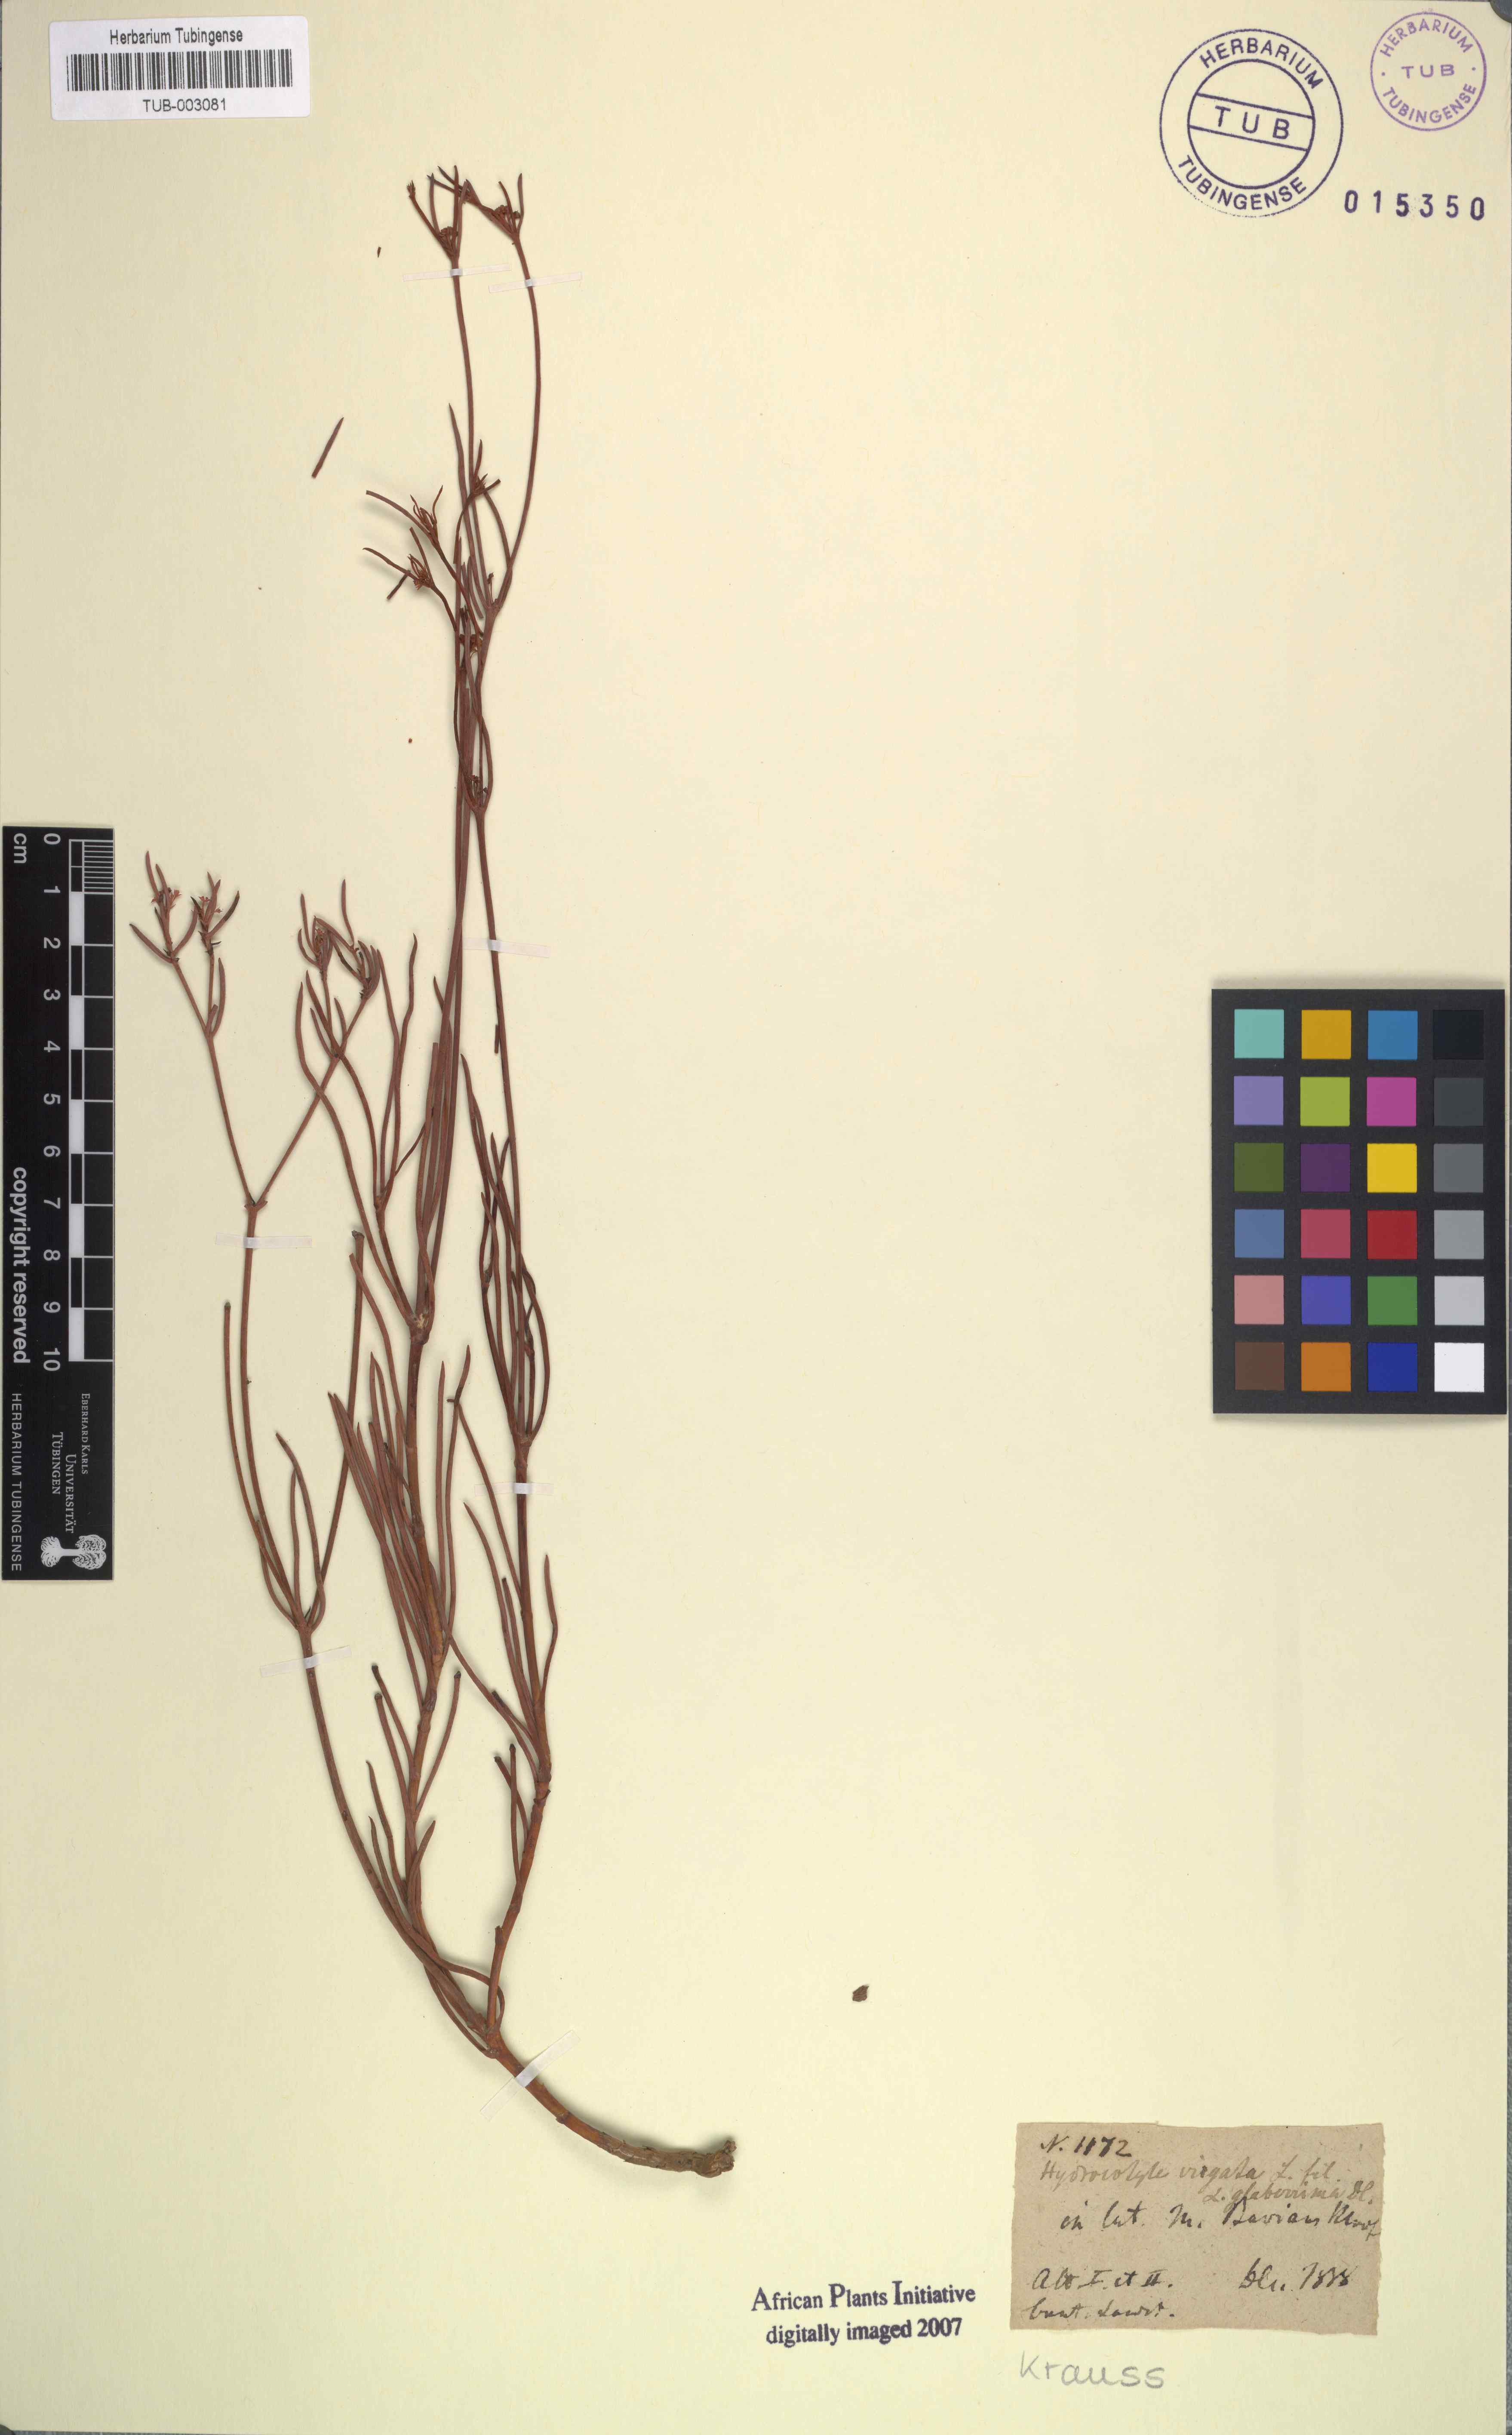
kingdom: Plantae
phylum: Tracheophyta
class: Magnoliopsida
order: Apiales
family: Apiaceae
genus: Centella
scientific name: Centella virgata
